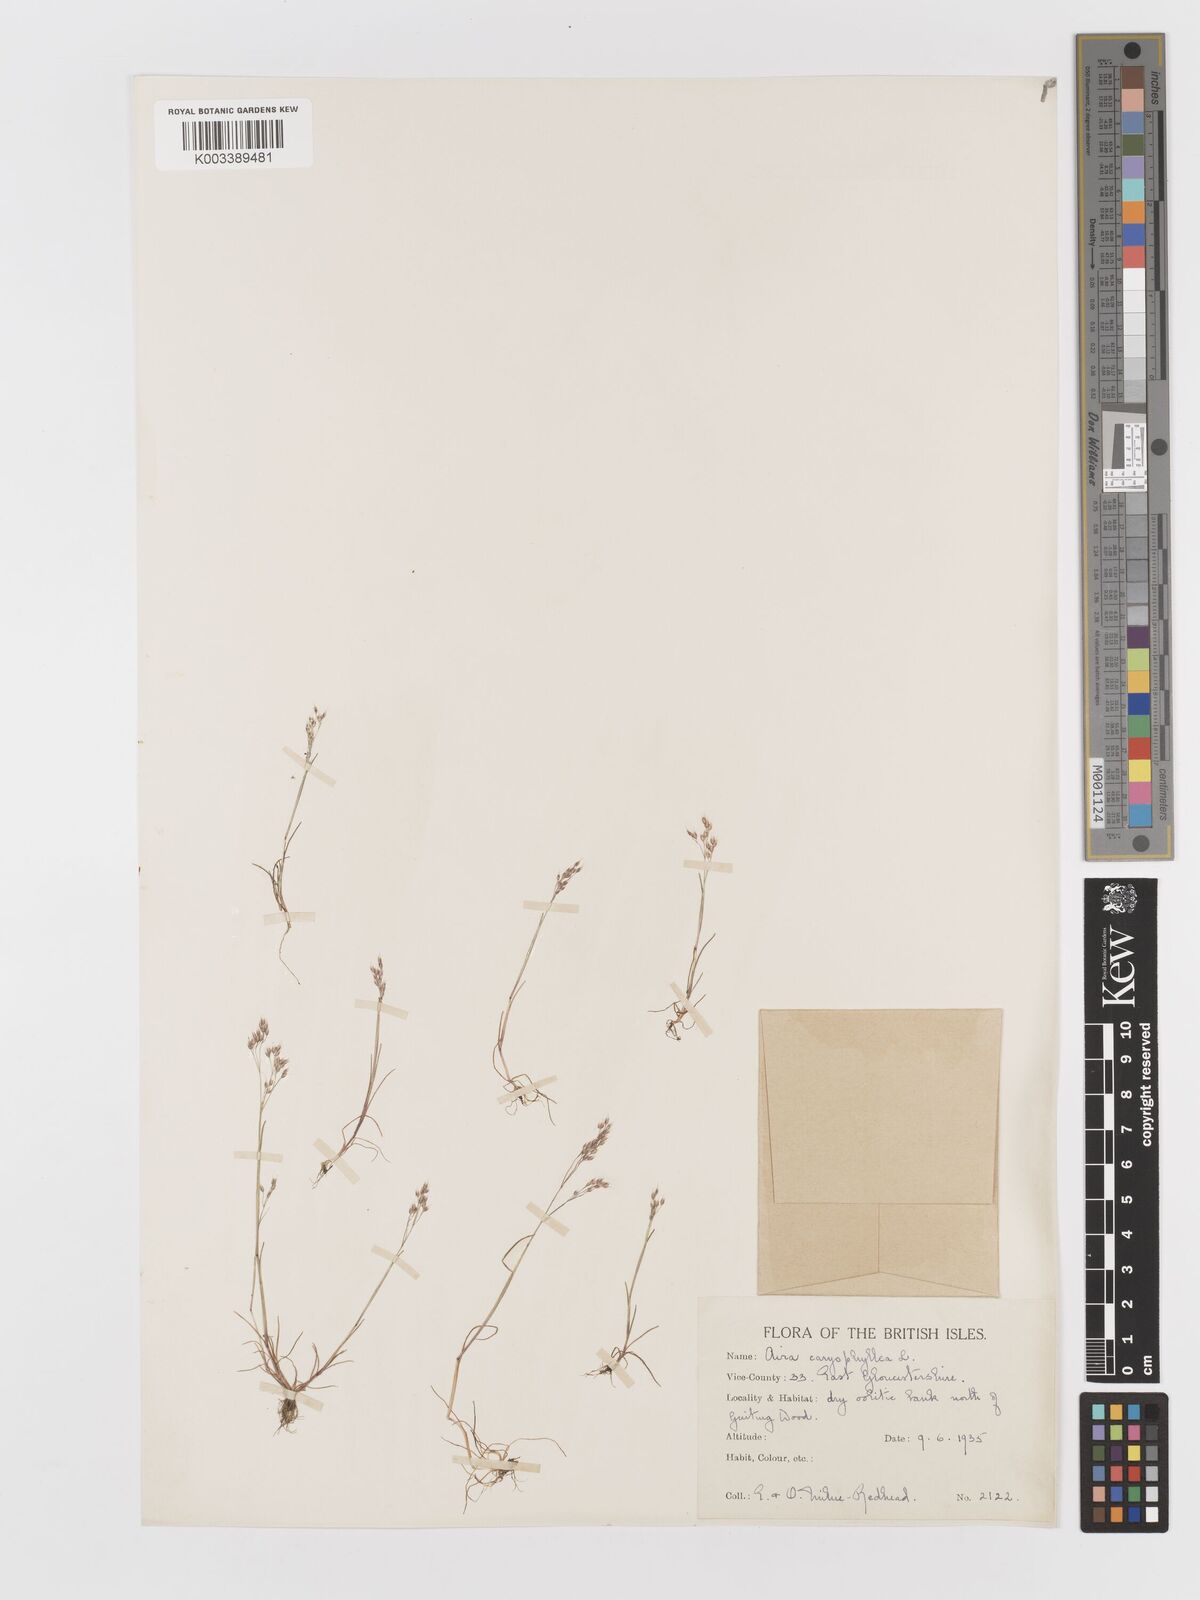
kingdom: Plantae
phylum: Tracheophyta
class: Liliopsida
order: Poales
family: Poaceae
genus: Aira
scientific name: Aira caryophyllea
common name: Silver hairgrass
